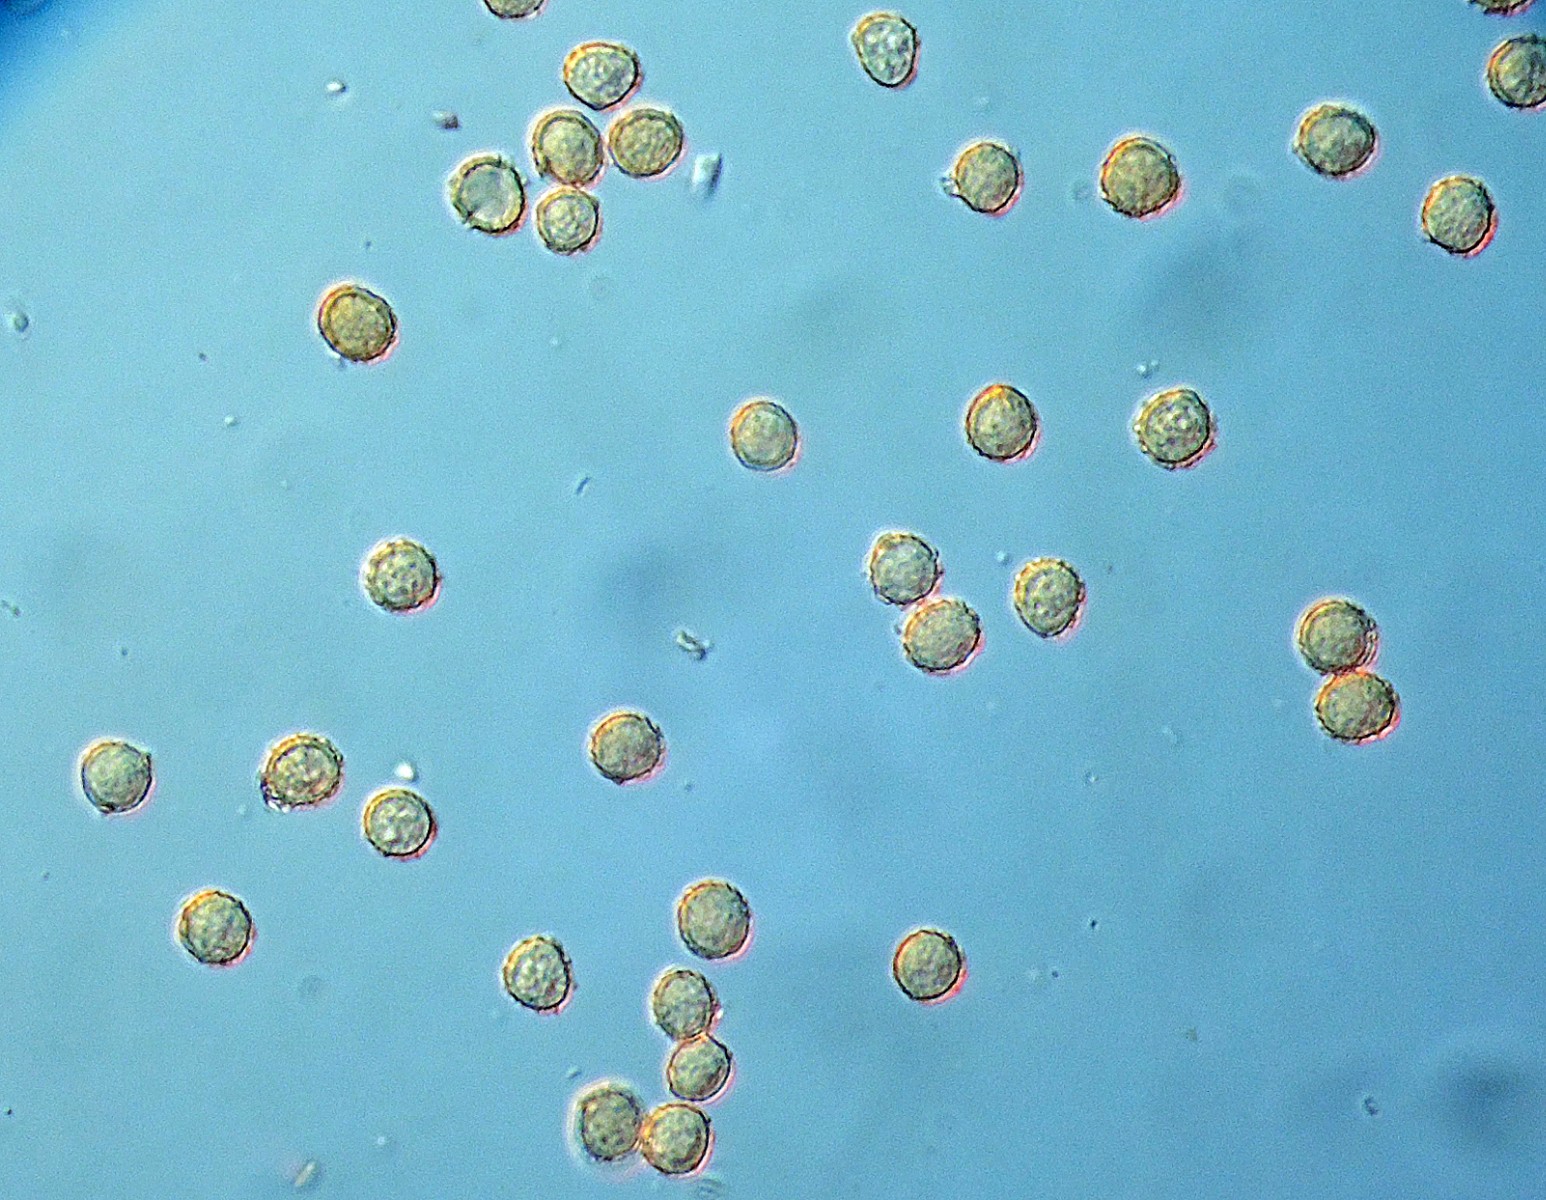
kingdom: Fungi
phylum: Basidiomycota
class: Agaricomycetes
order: Agaricales
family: Agaricaceae
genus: Tulostoma
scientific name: Tulostoma fimbriatum
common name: frynset stilkbovist
